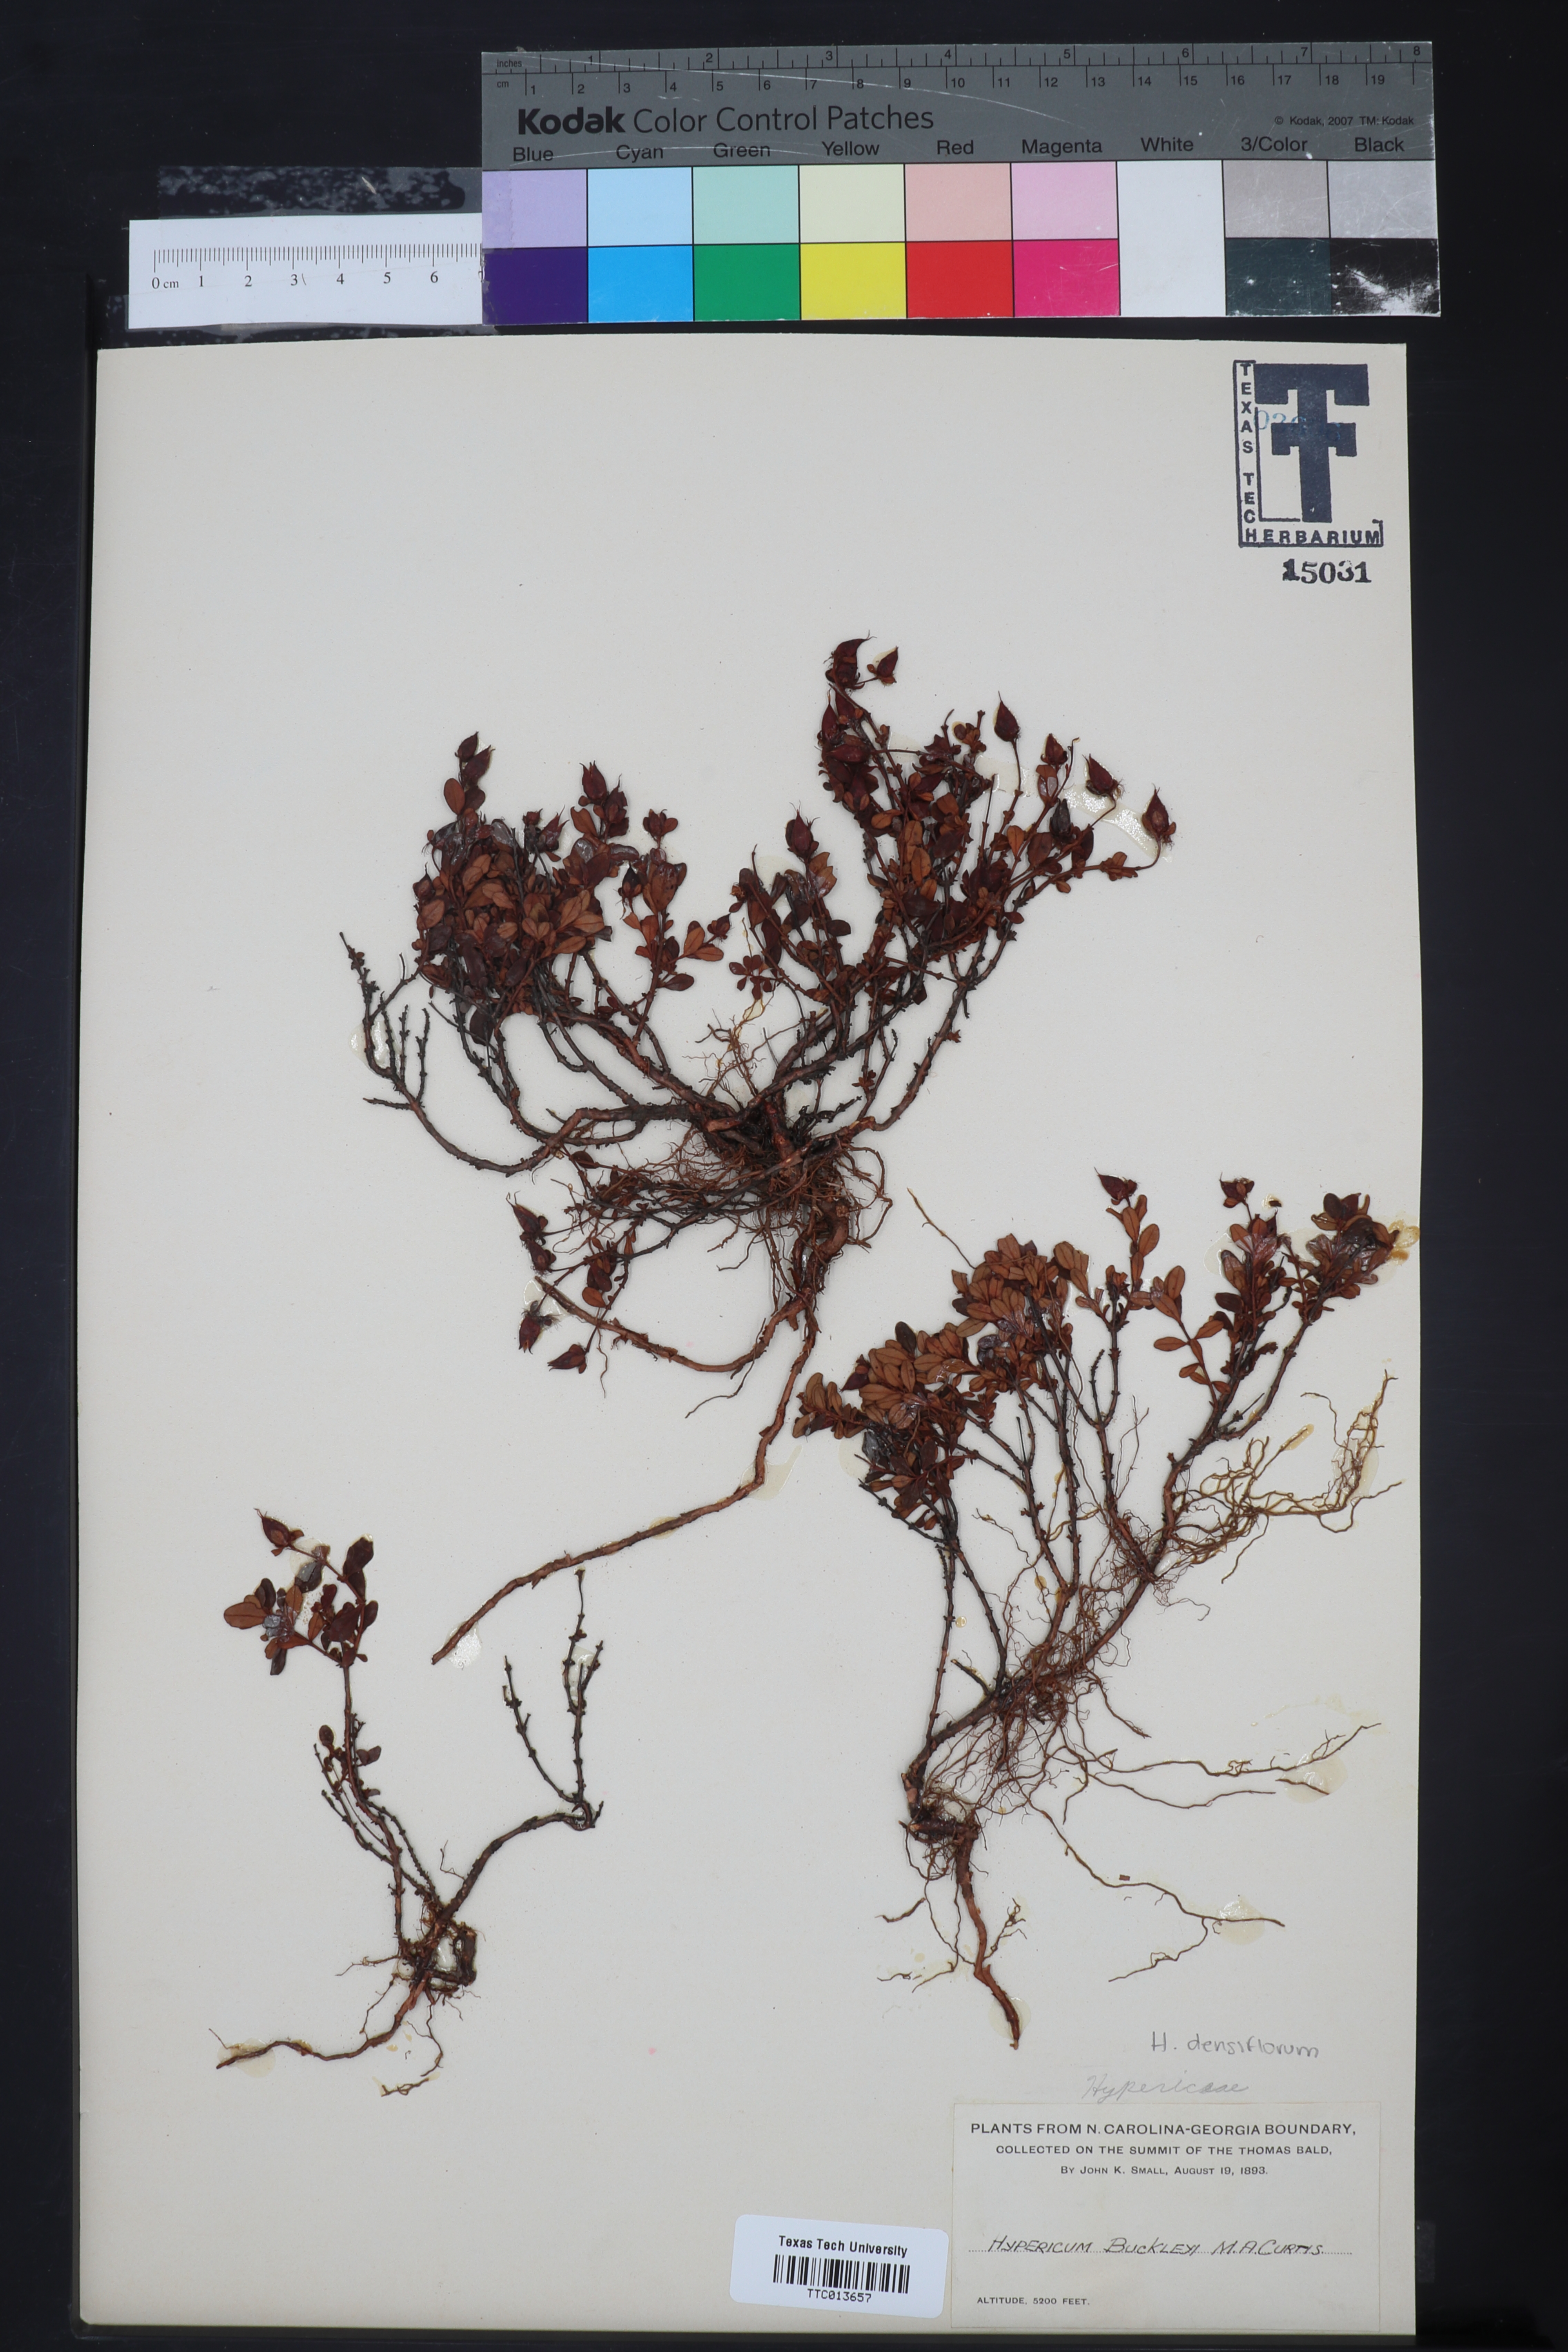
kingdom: Plantae
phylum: Tracheophyta
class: Magnoliopsida
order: Malpighiales
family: Hypericaceae
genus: Hypericum
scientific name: Hypericum buckleyi
